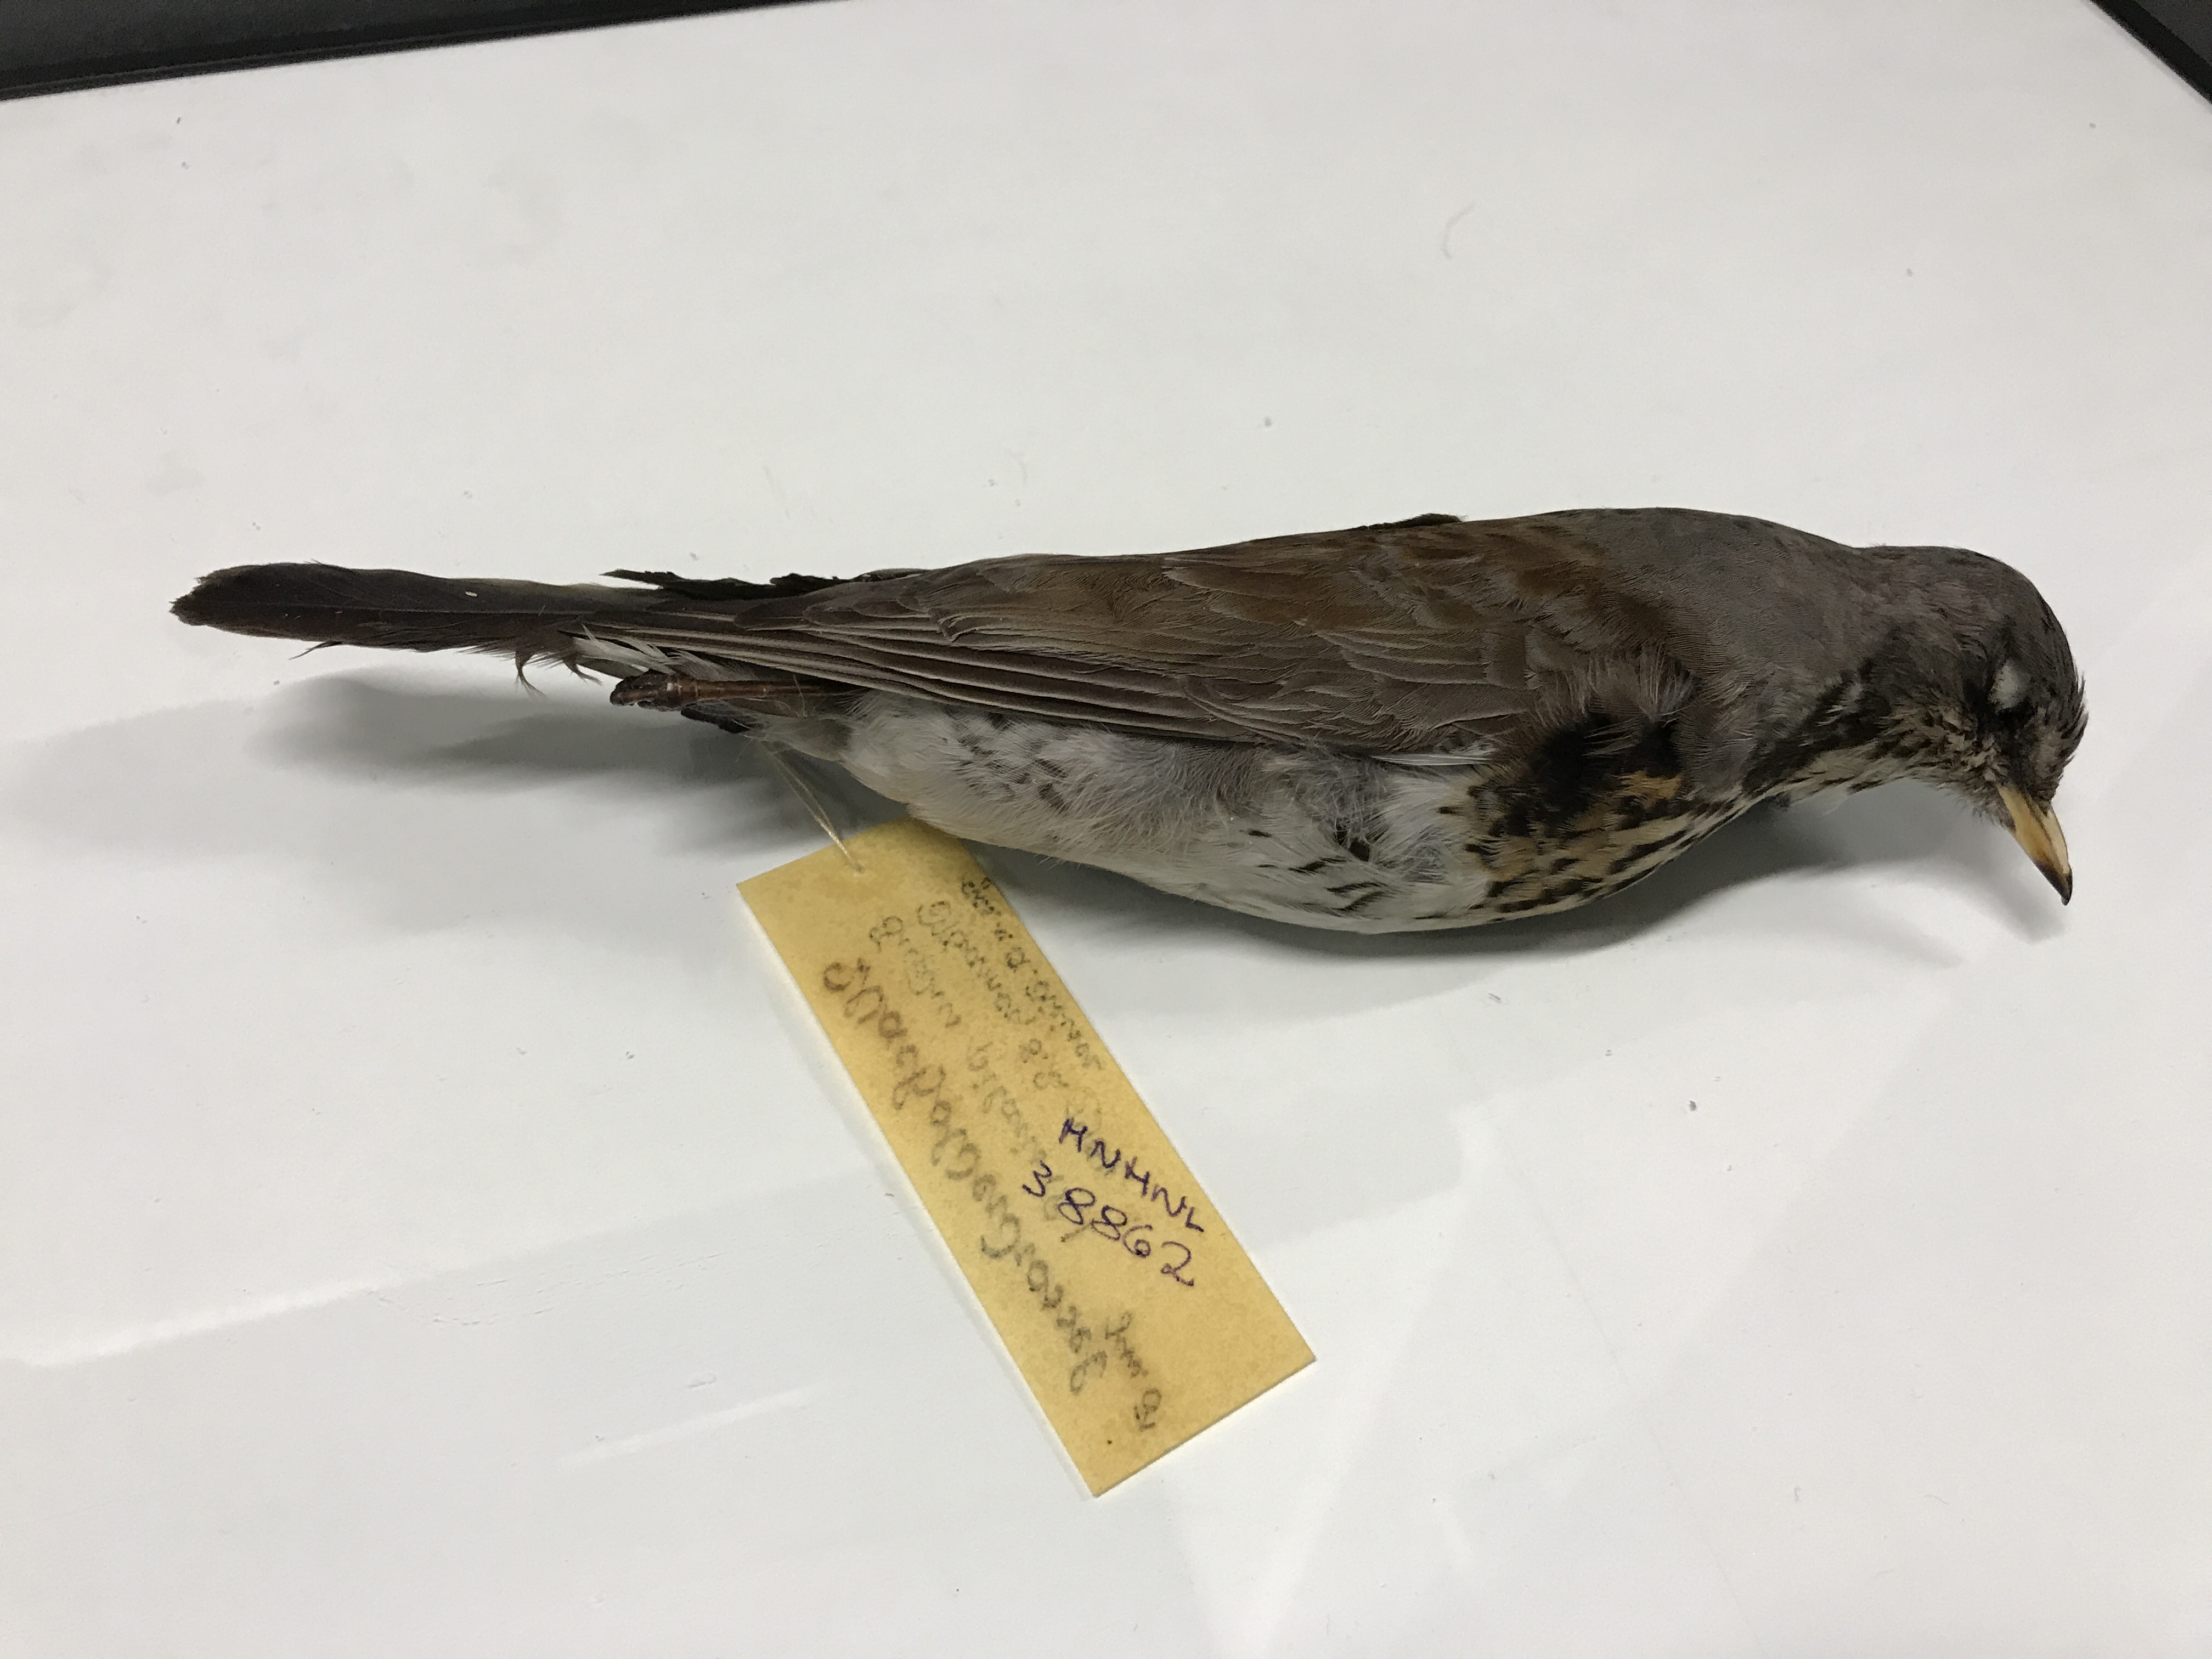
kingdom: Animalia
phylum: Chordata
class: Aves
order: Passeriformes
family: Turdidae
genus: Turdus
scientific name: Turdus pilaris
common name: Fieldfare
